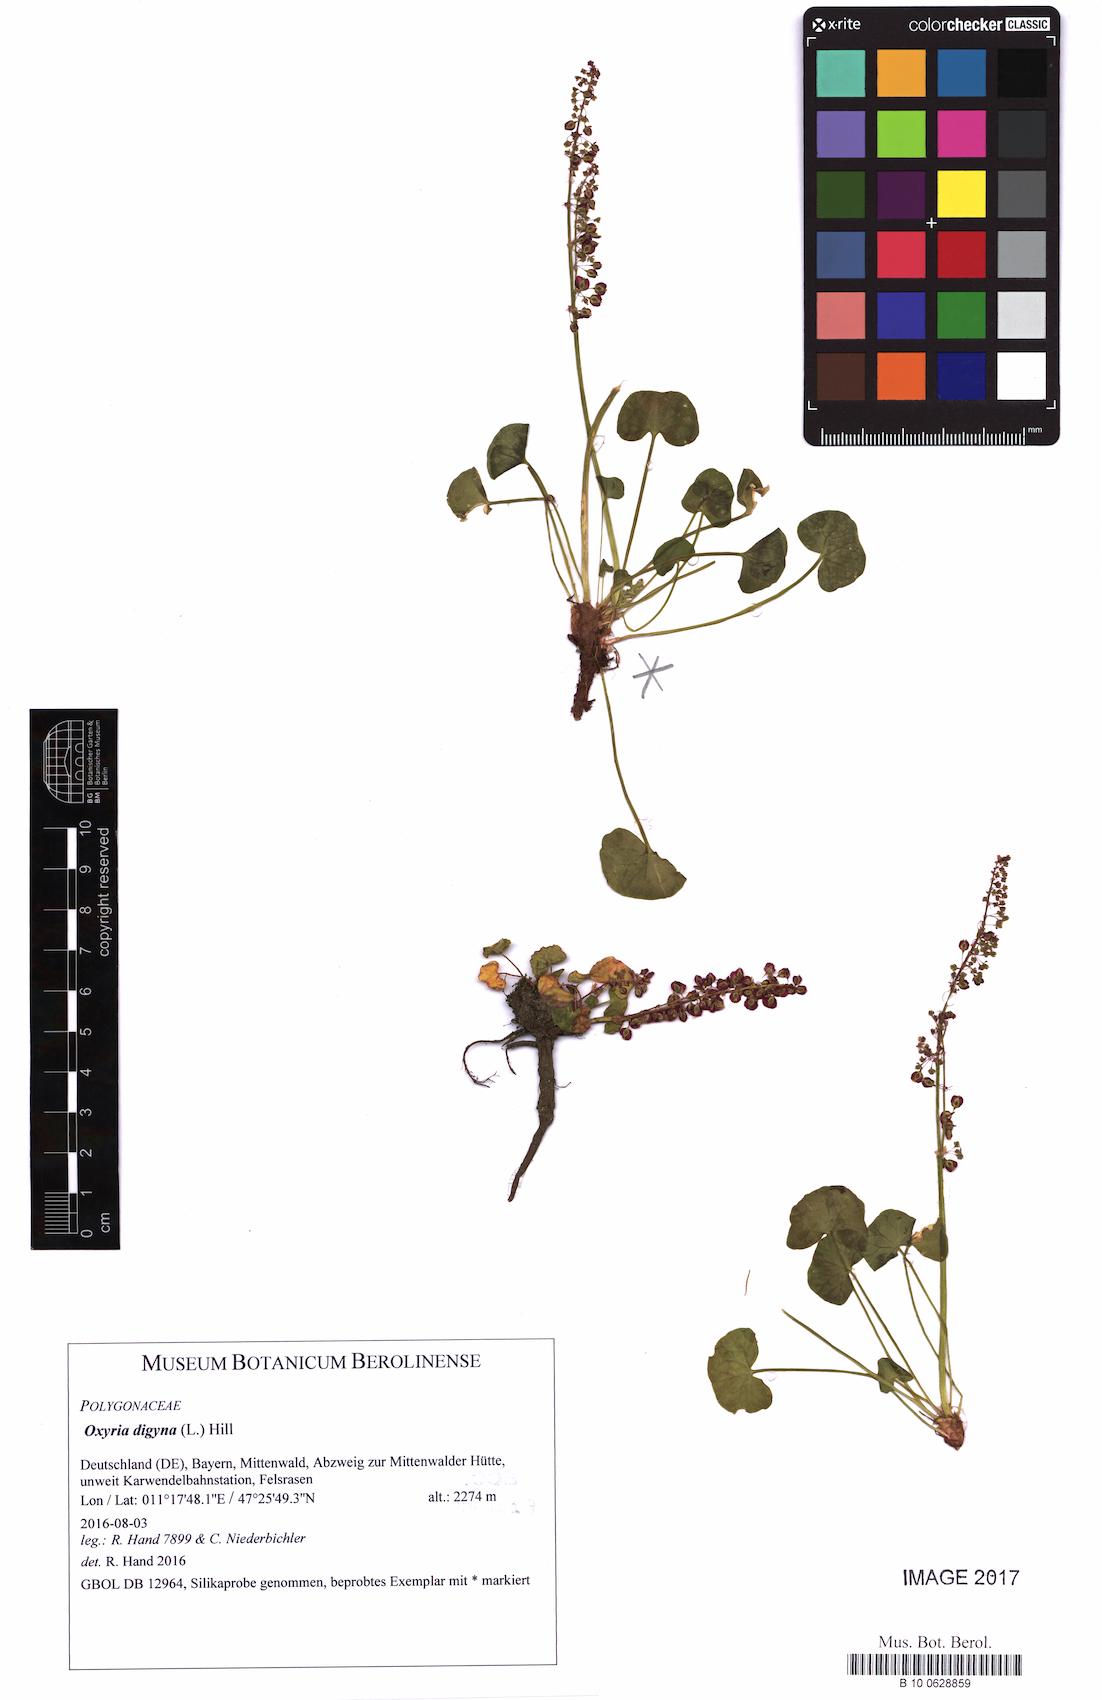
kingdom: Plantae
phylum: Tracheophyta
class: Magnoliopsida
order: Caryophyllales
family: Polygonaceae
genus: Oxyria
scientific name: Oxyria digyna
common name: Alpine mountain-sorrel
